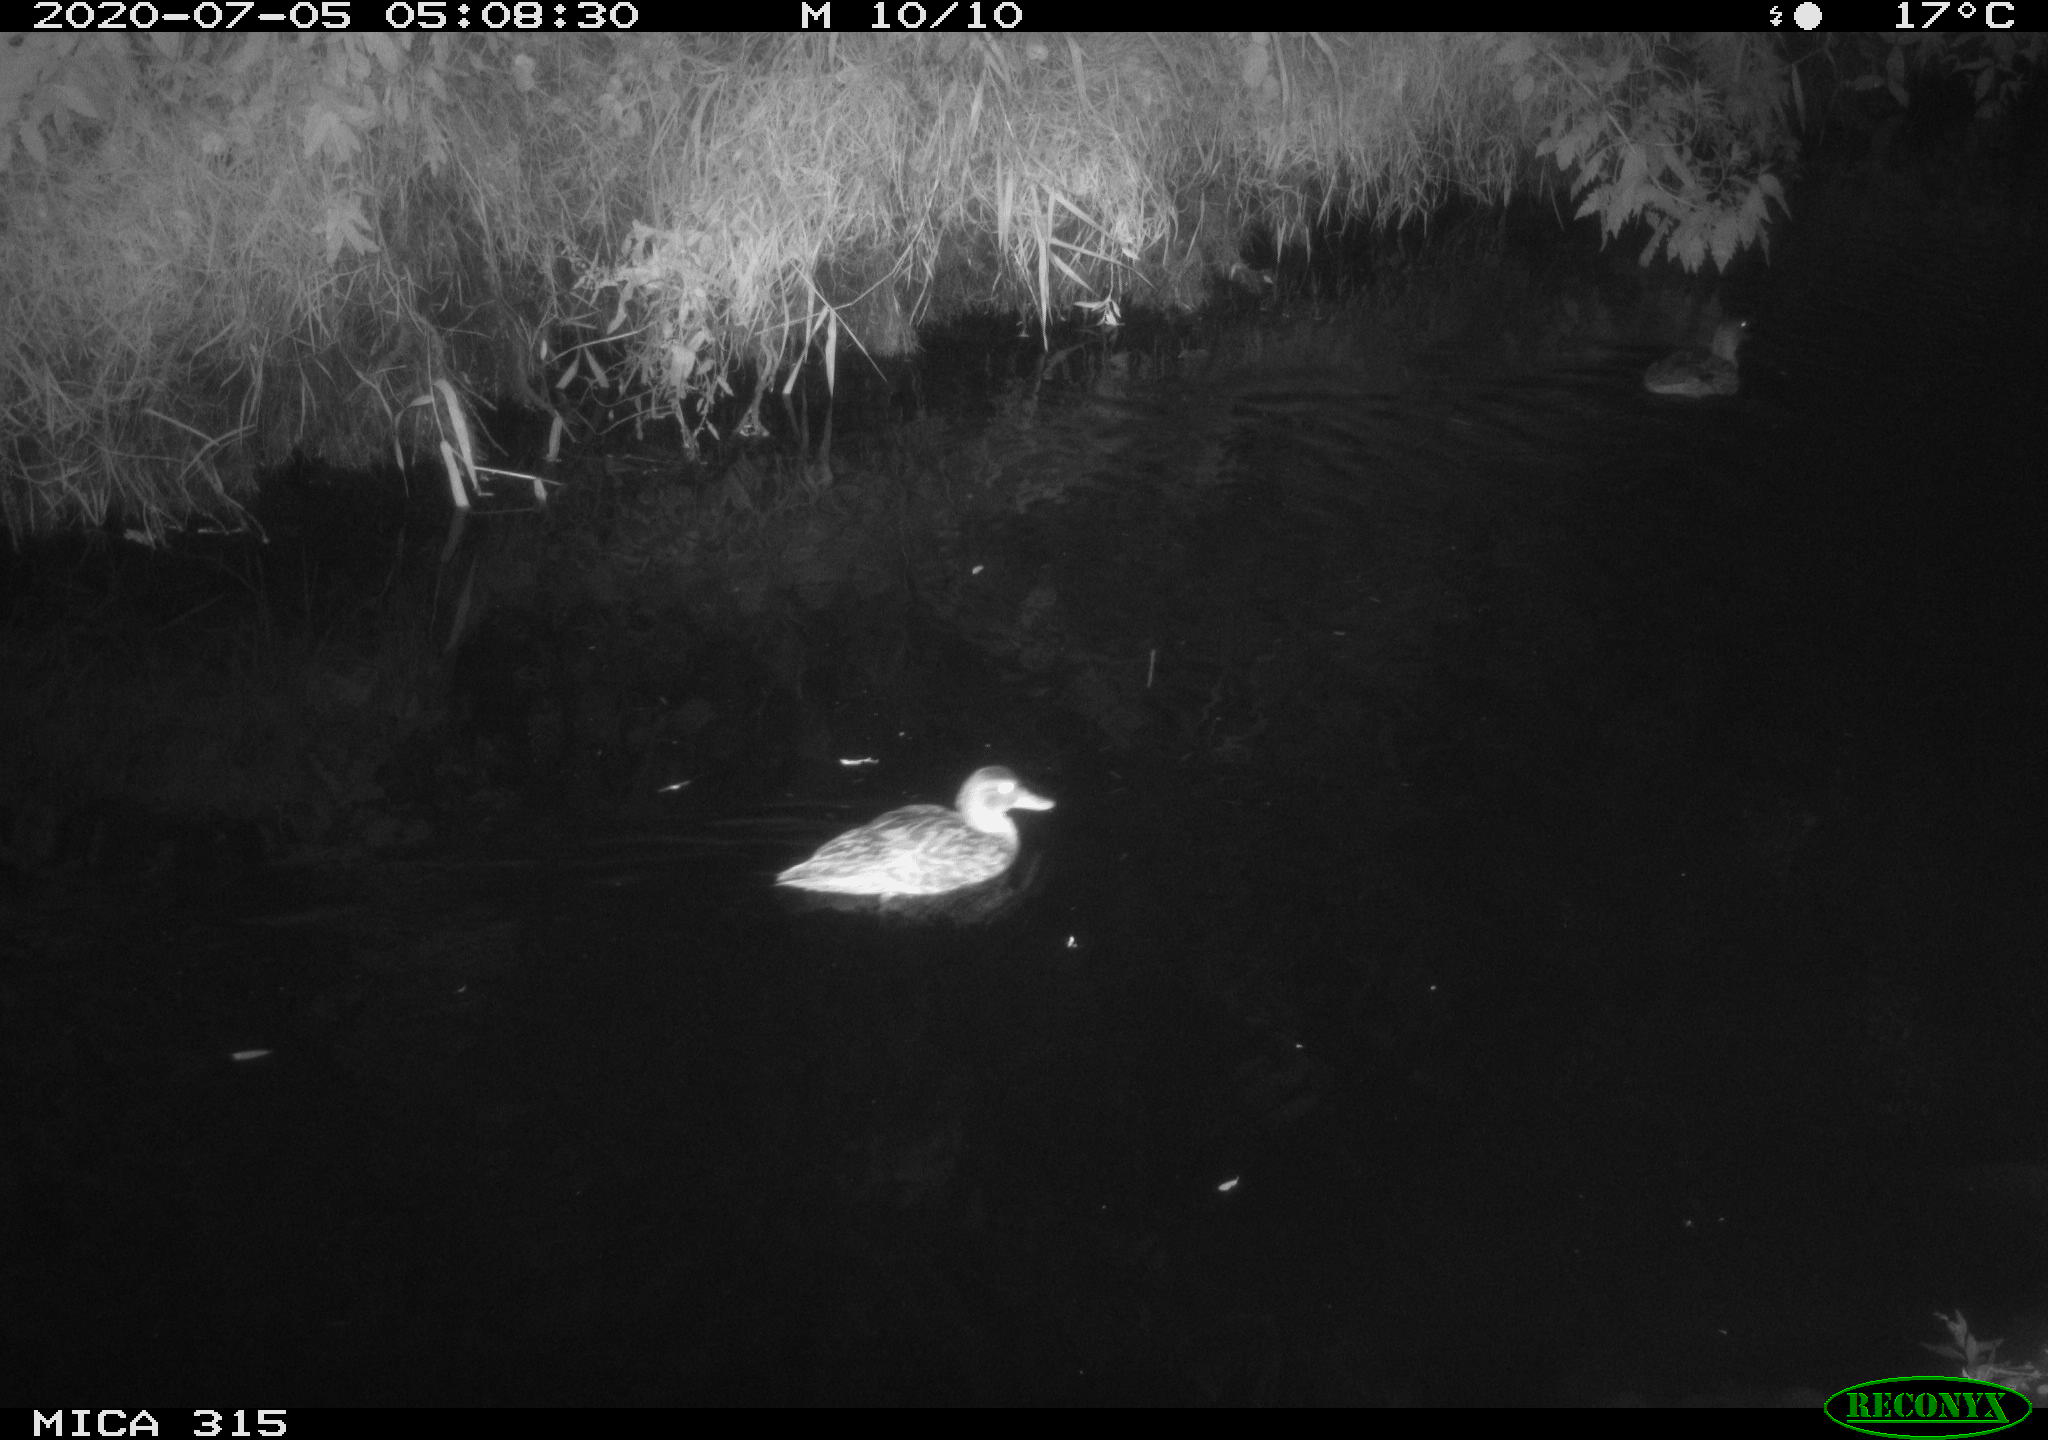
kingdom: Animalia
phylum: Chordata
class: Aves
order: Anseriformes
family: Anatidae
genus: Anas
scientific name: Anas platyrhynchos
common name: Mallard
